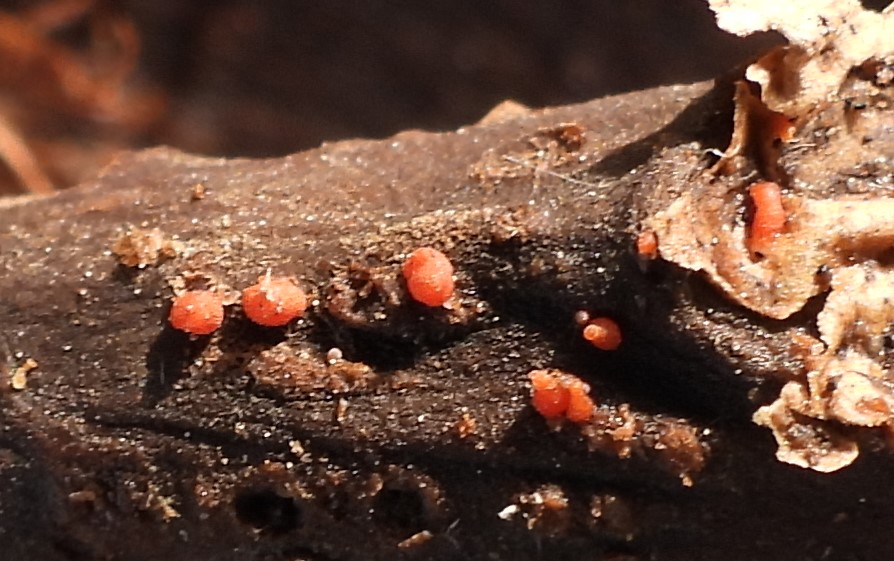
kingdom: Fungi
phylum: Ascomycota
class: Sordariomycetes
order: Hypocreales
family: Nectriaceae
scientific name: Nectriaceae
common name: cinnobersvampfamilien
